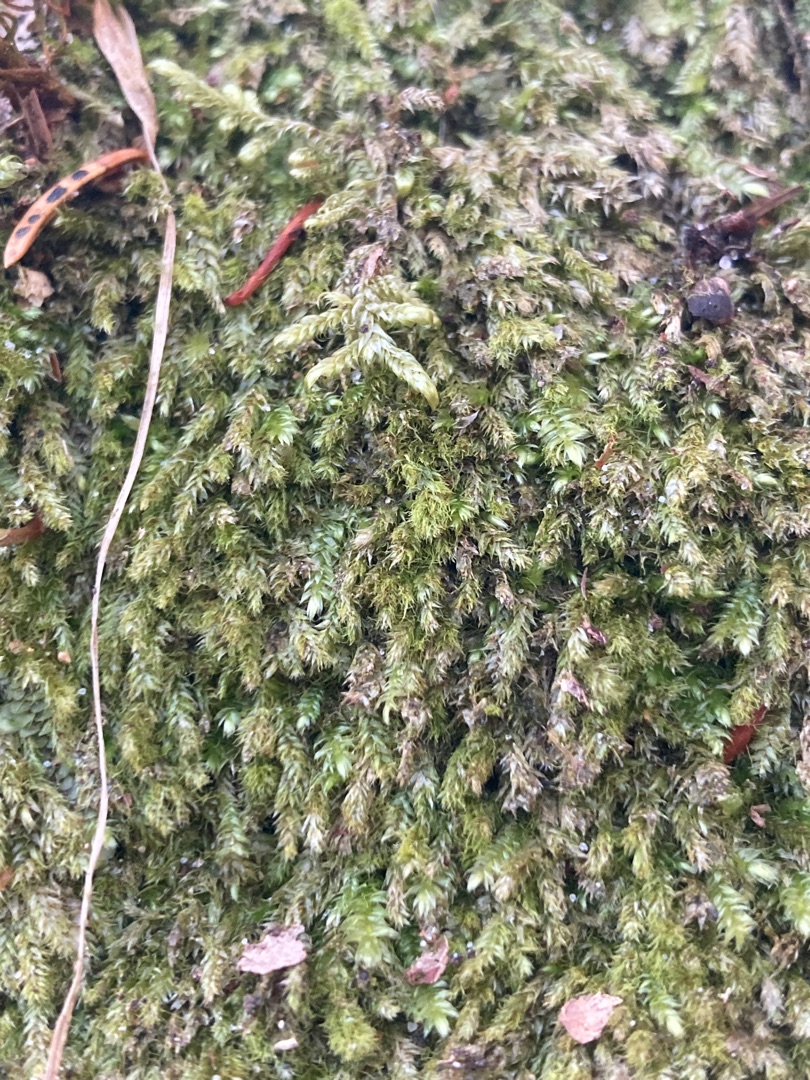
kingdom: Plantae
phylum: Bryophyta
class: Bryopsida
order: Hypnales
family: Plagiotheciaceae
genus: Pseudotaxiphyllum
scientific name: Pseudotaxiphyllum elegans
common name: Skinnende ynglegren
